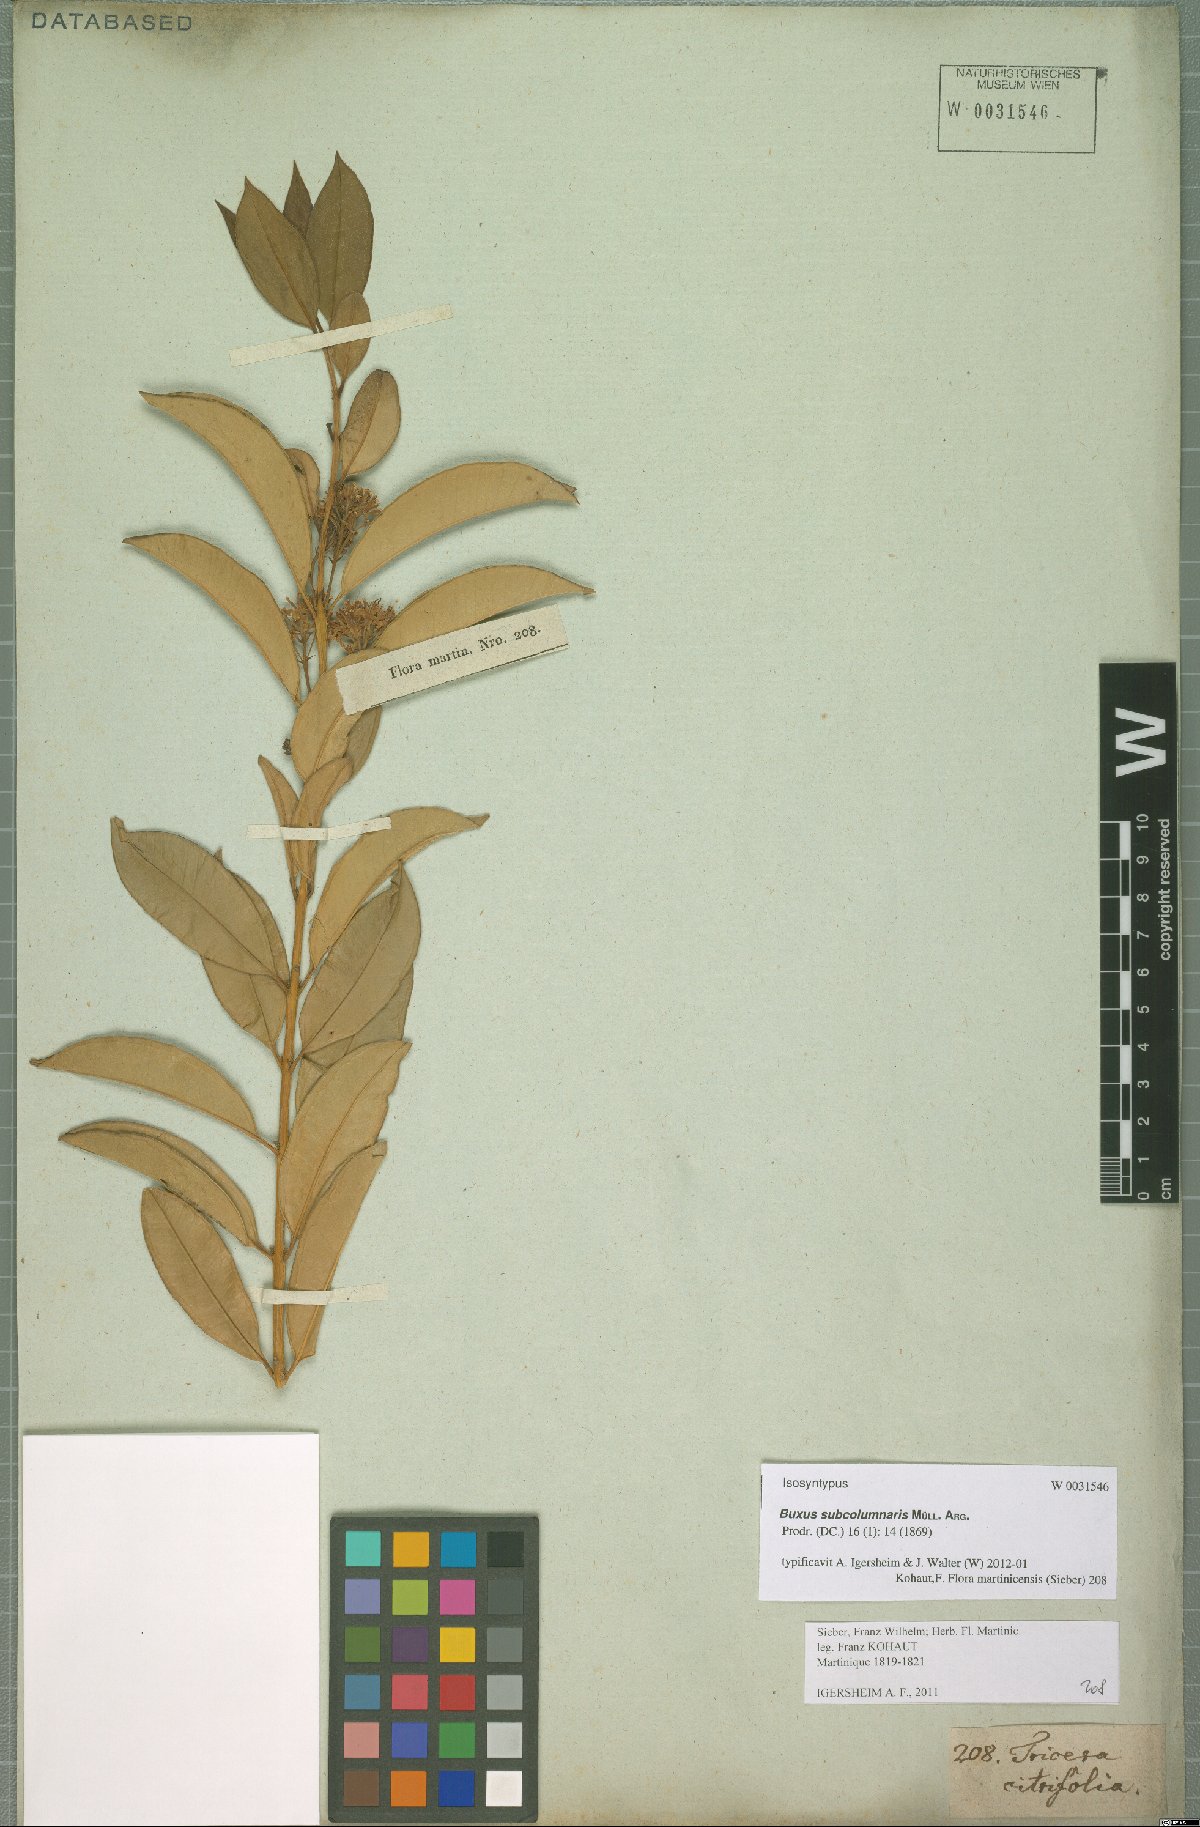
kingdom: Plantae
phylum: Tracheophyta
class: Magnoliopsida
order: Buxales
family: Buxaceae
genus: Buxus
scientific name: Buxus subcolumnaris
